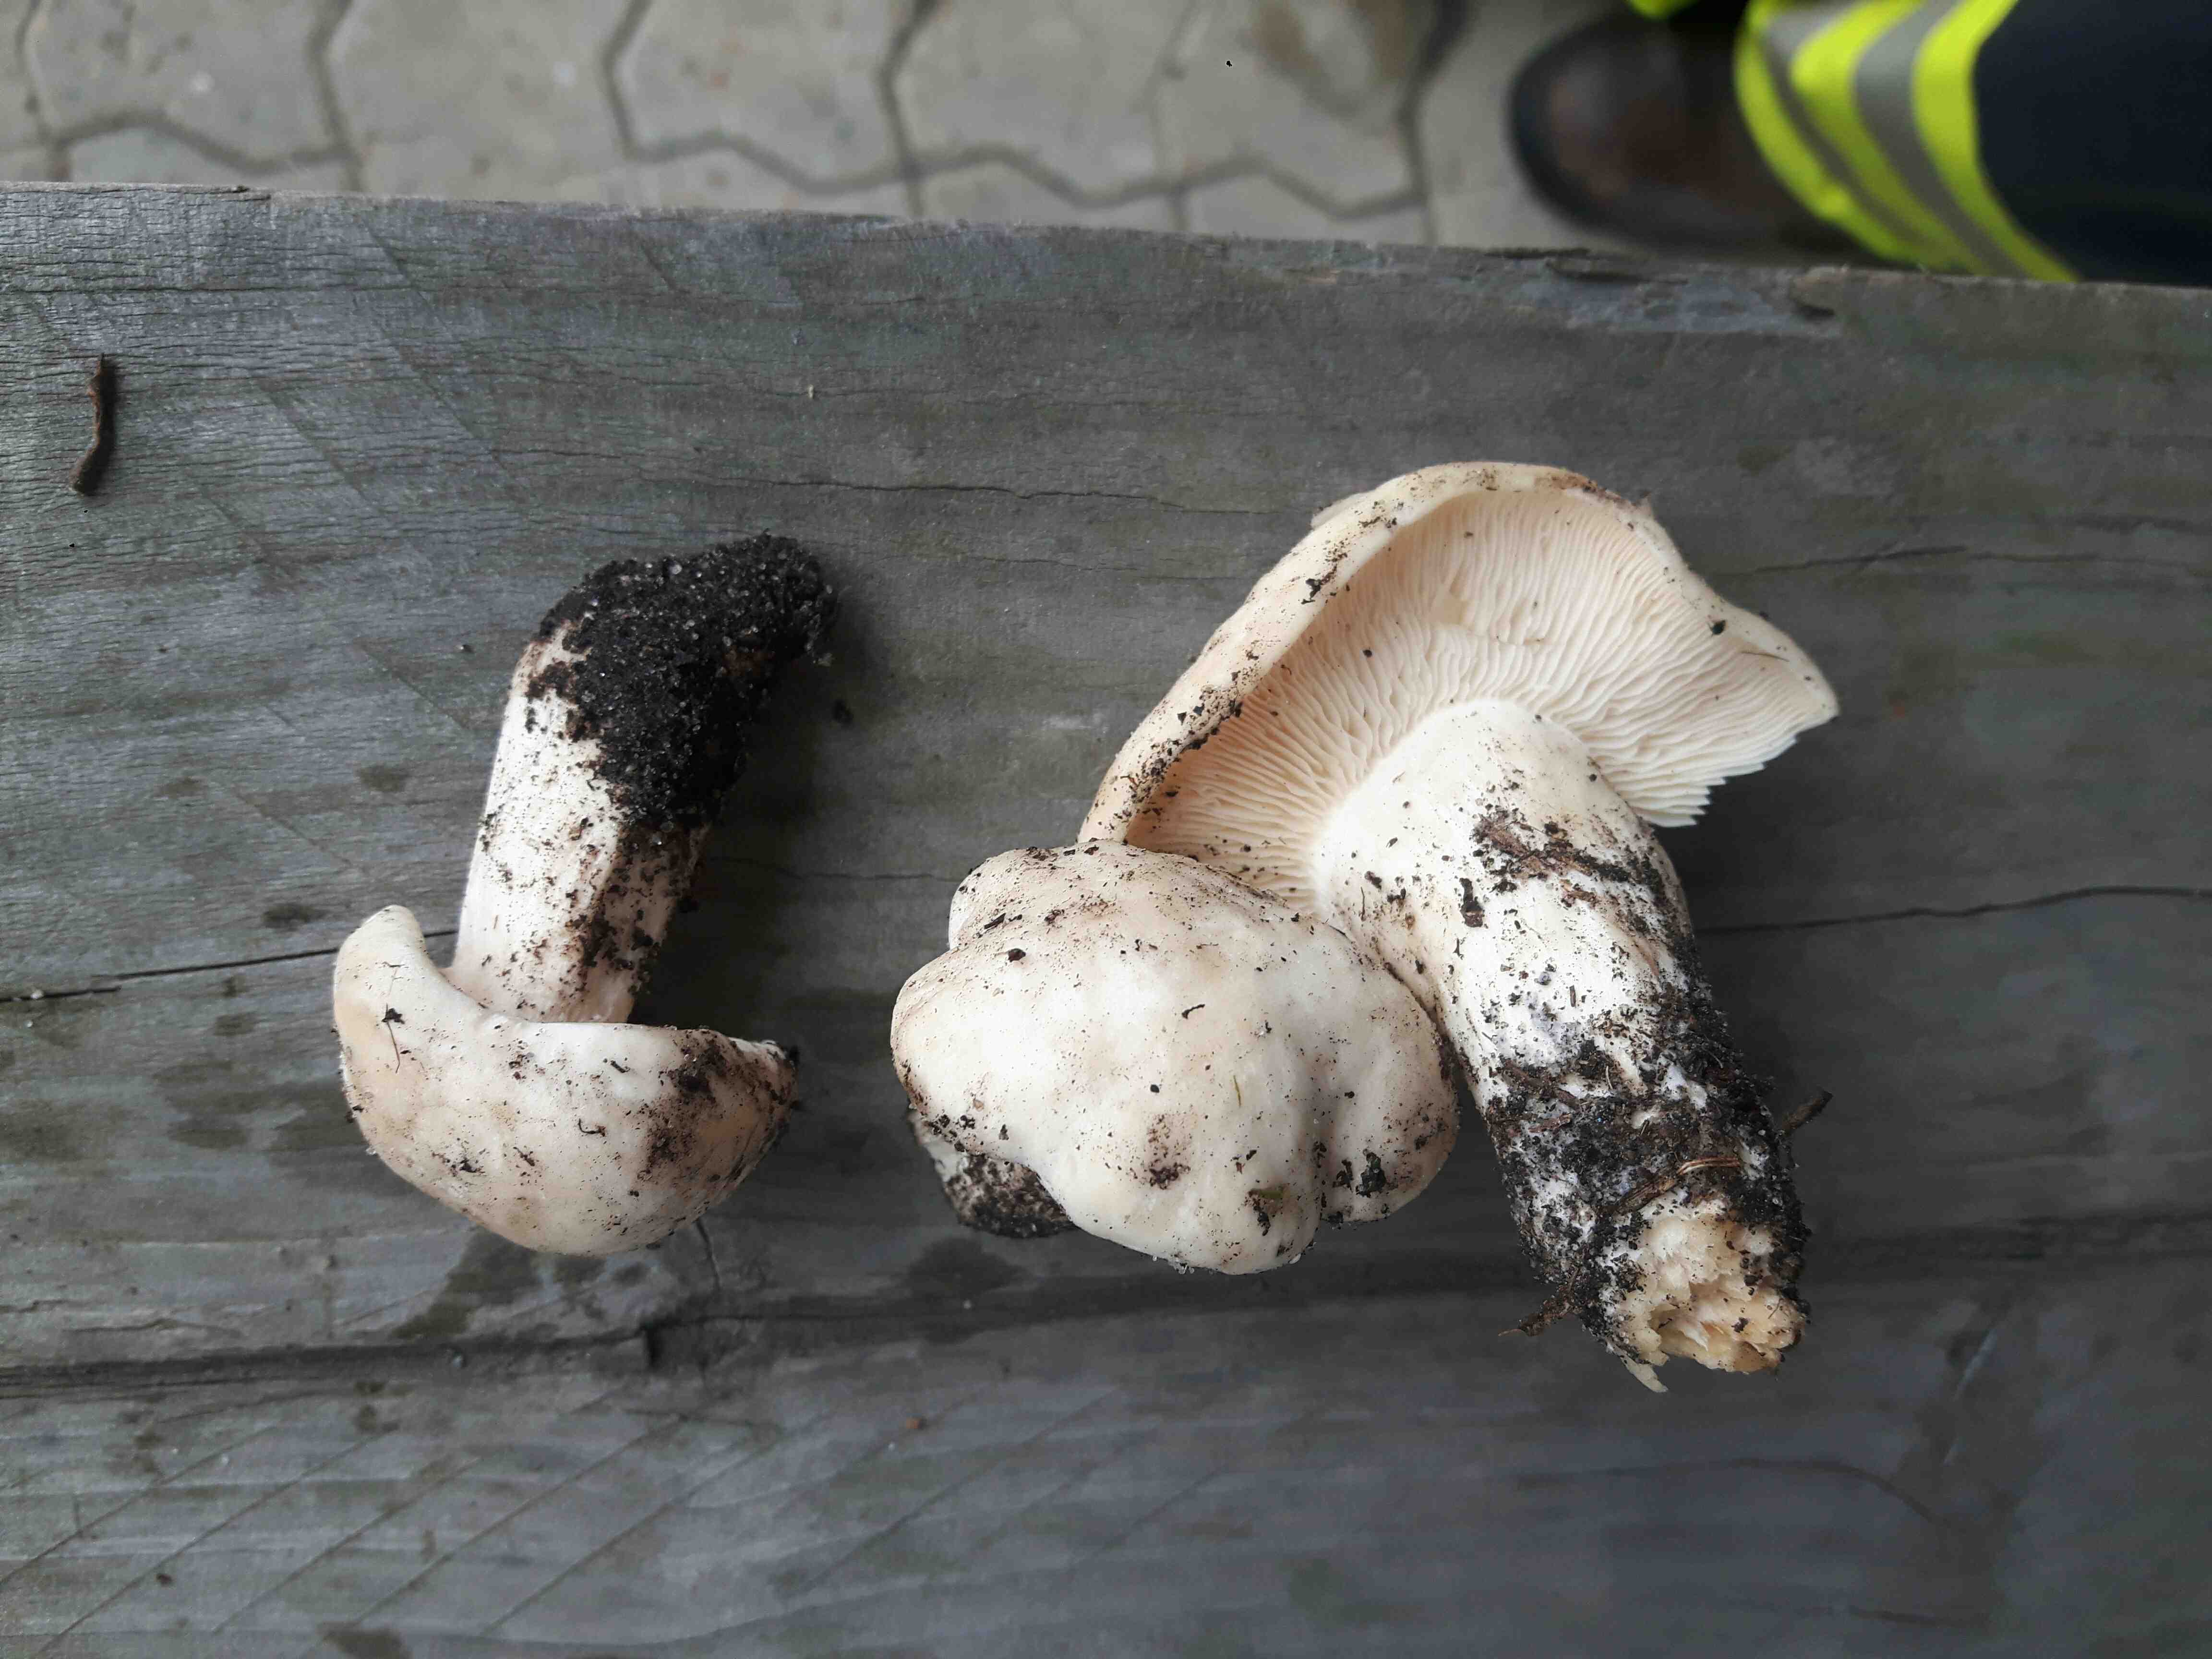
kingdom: Fungi
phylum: Basidiomycota
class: Agaricomycetes
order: Agaricales
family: Lyophyllaceae
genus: Calocybe
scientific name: Calocybe gambosa
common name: vårmusseron
